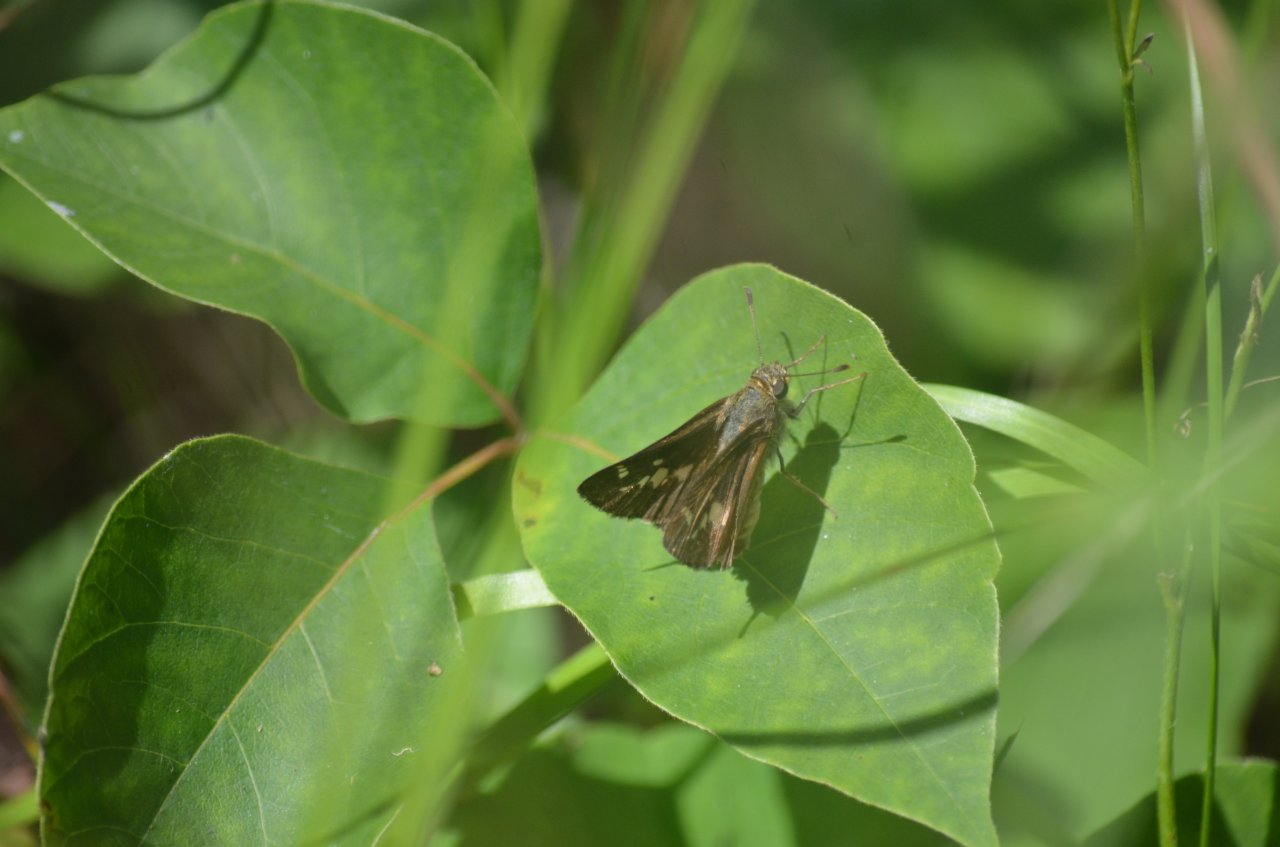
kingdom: Animalia
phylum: Arthropoda
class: Insecta
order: Lepidoptera
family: Hesperiidae
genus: Vernia
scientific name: Vernia verna
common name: Little Glassywing
